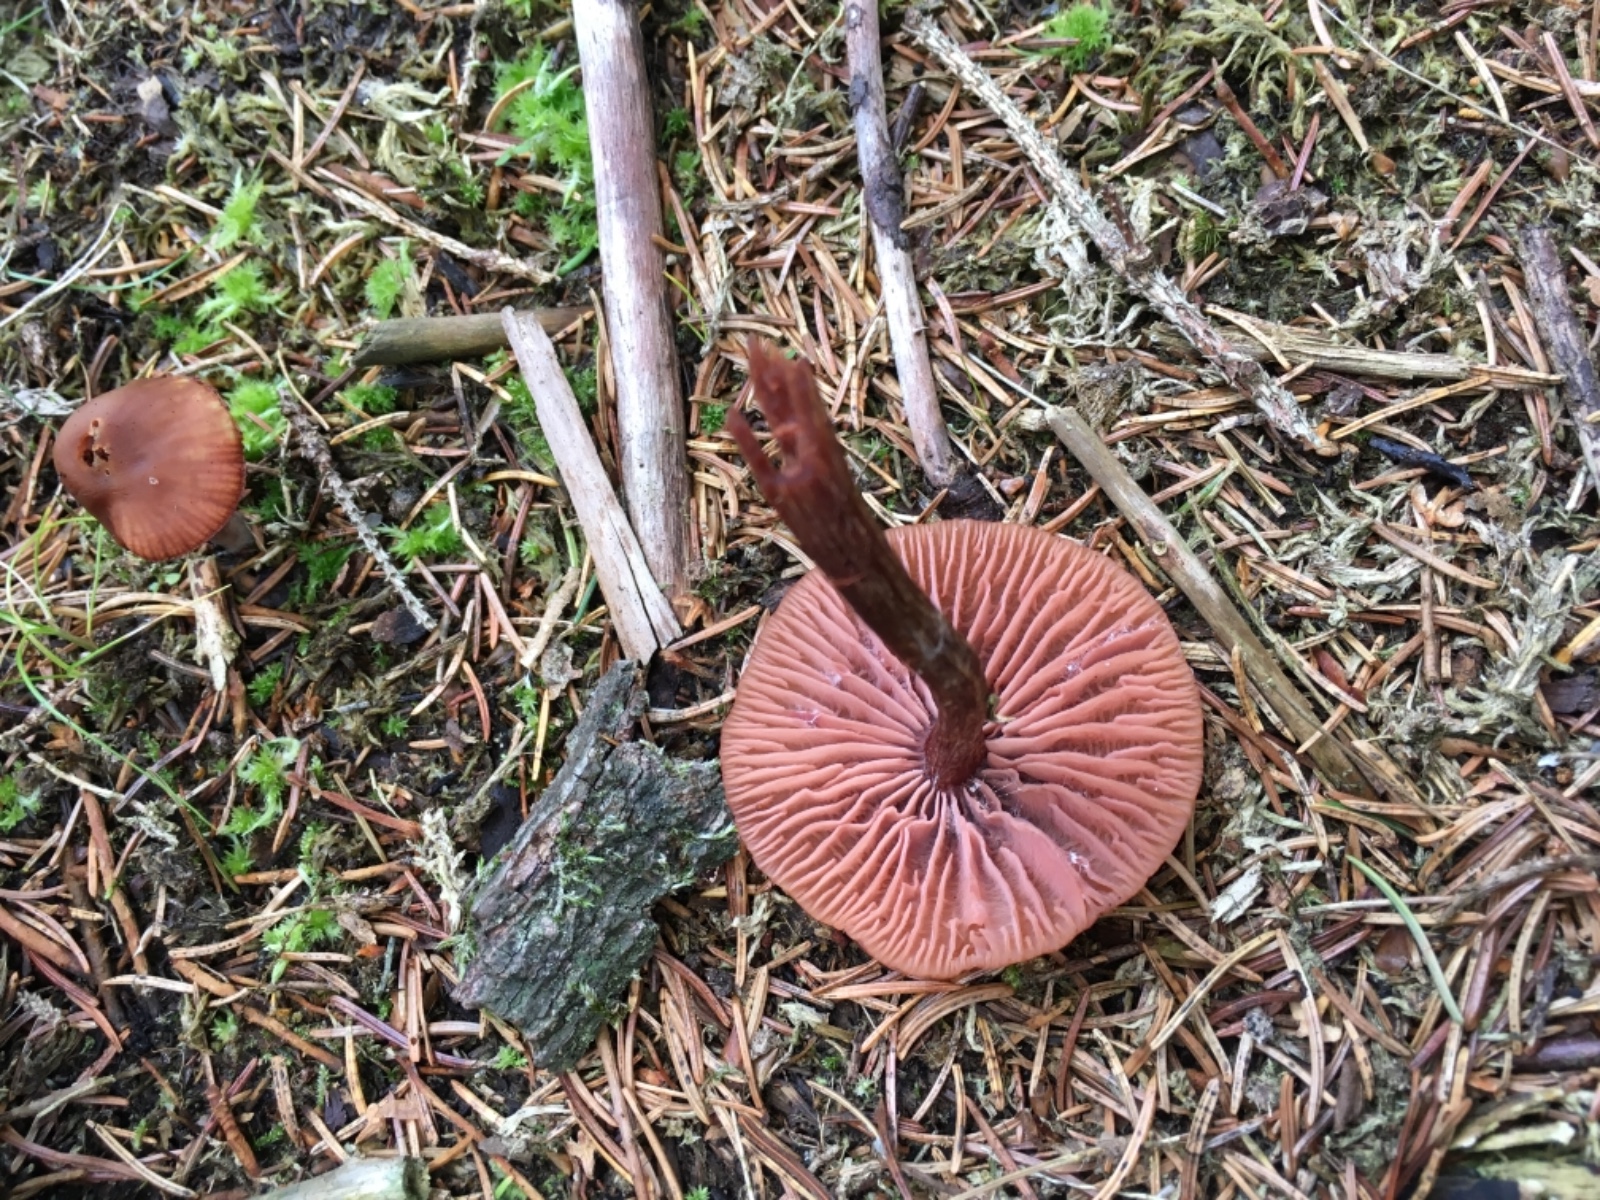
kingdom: Fungi
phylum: Basidiomycota
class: Agaricomycetes
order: Agaricales
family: Hydnangiaceae
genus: Laccaria
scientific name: Laccaria laccata
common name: rød ametysthat
